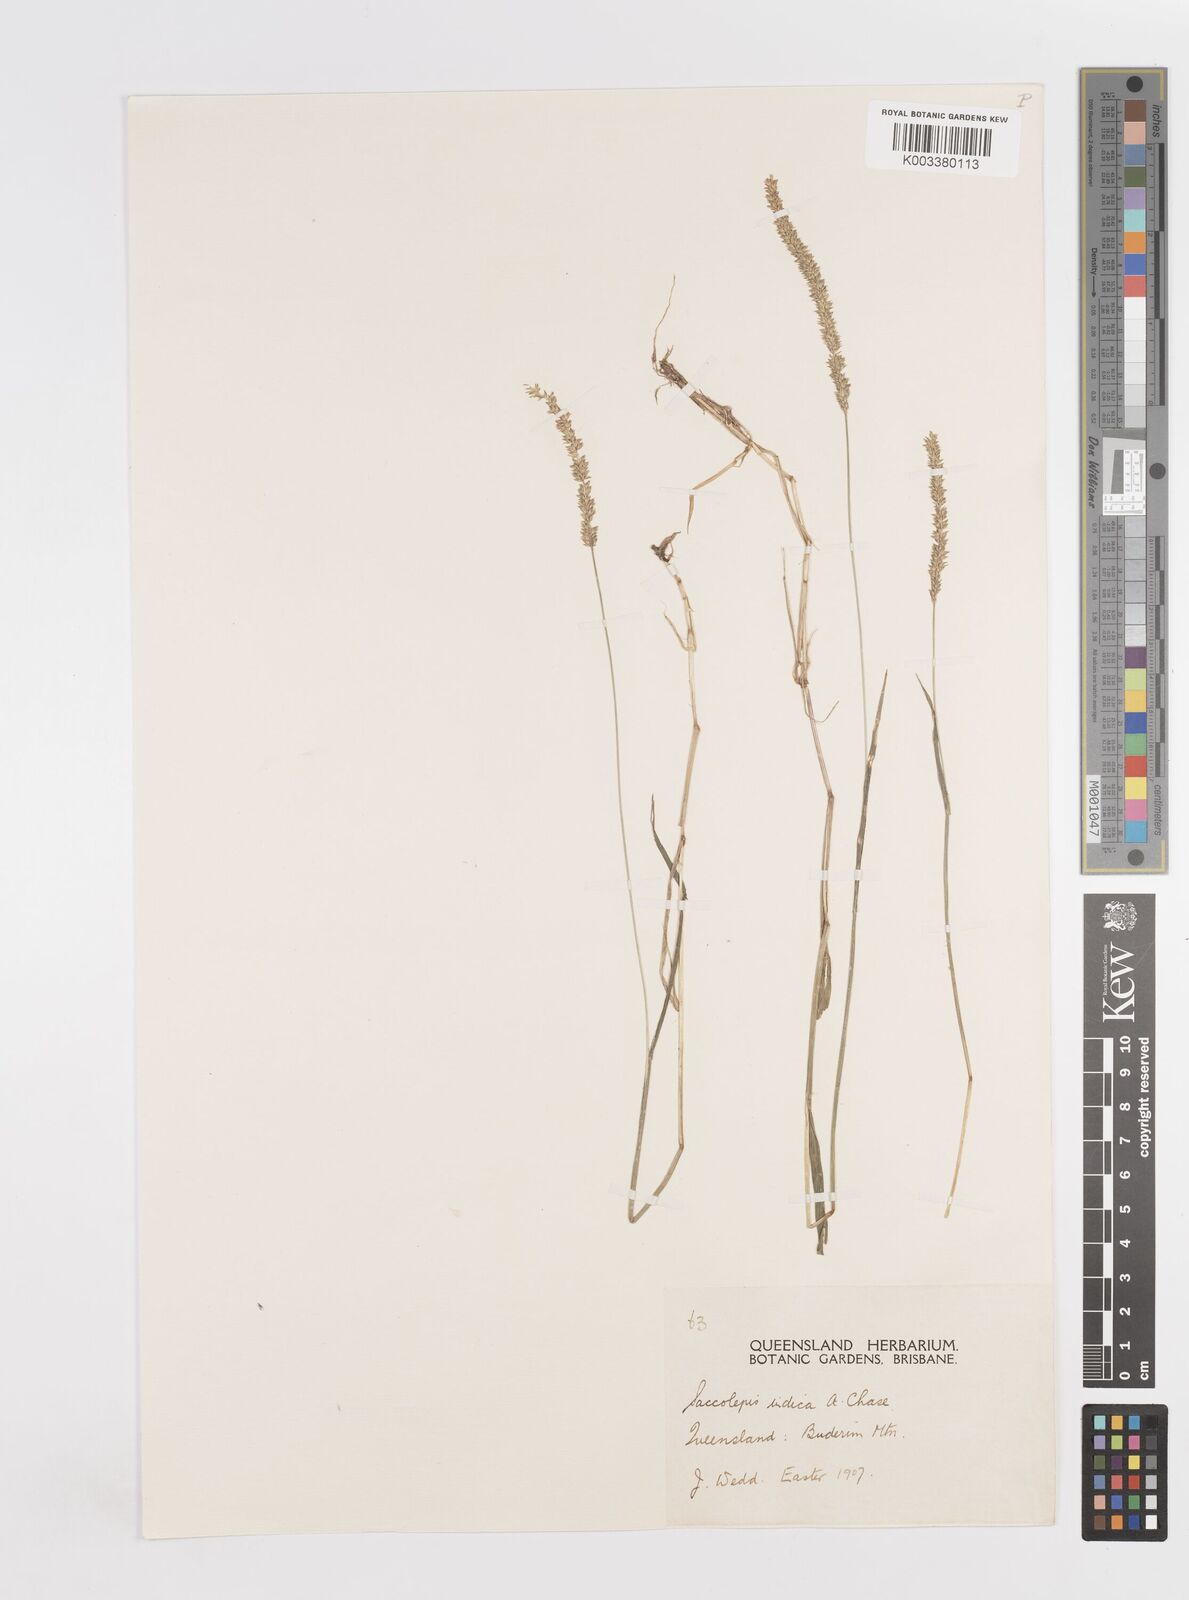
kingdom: Plantae
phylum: Tracheophyta
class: Liliopsida
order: Poales
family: Poaceae
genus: Sacciolepis
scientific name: Sacciolepis indica
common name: Glenwoodgrass
